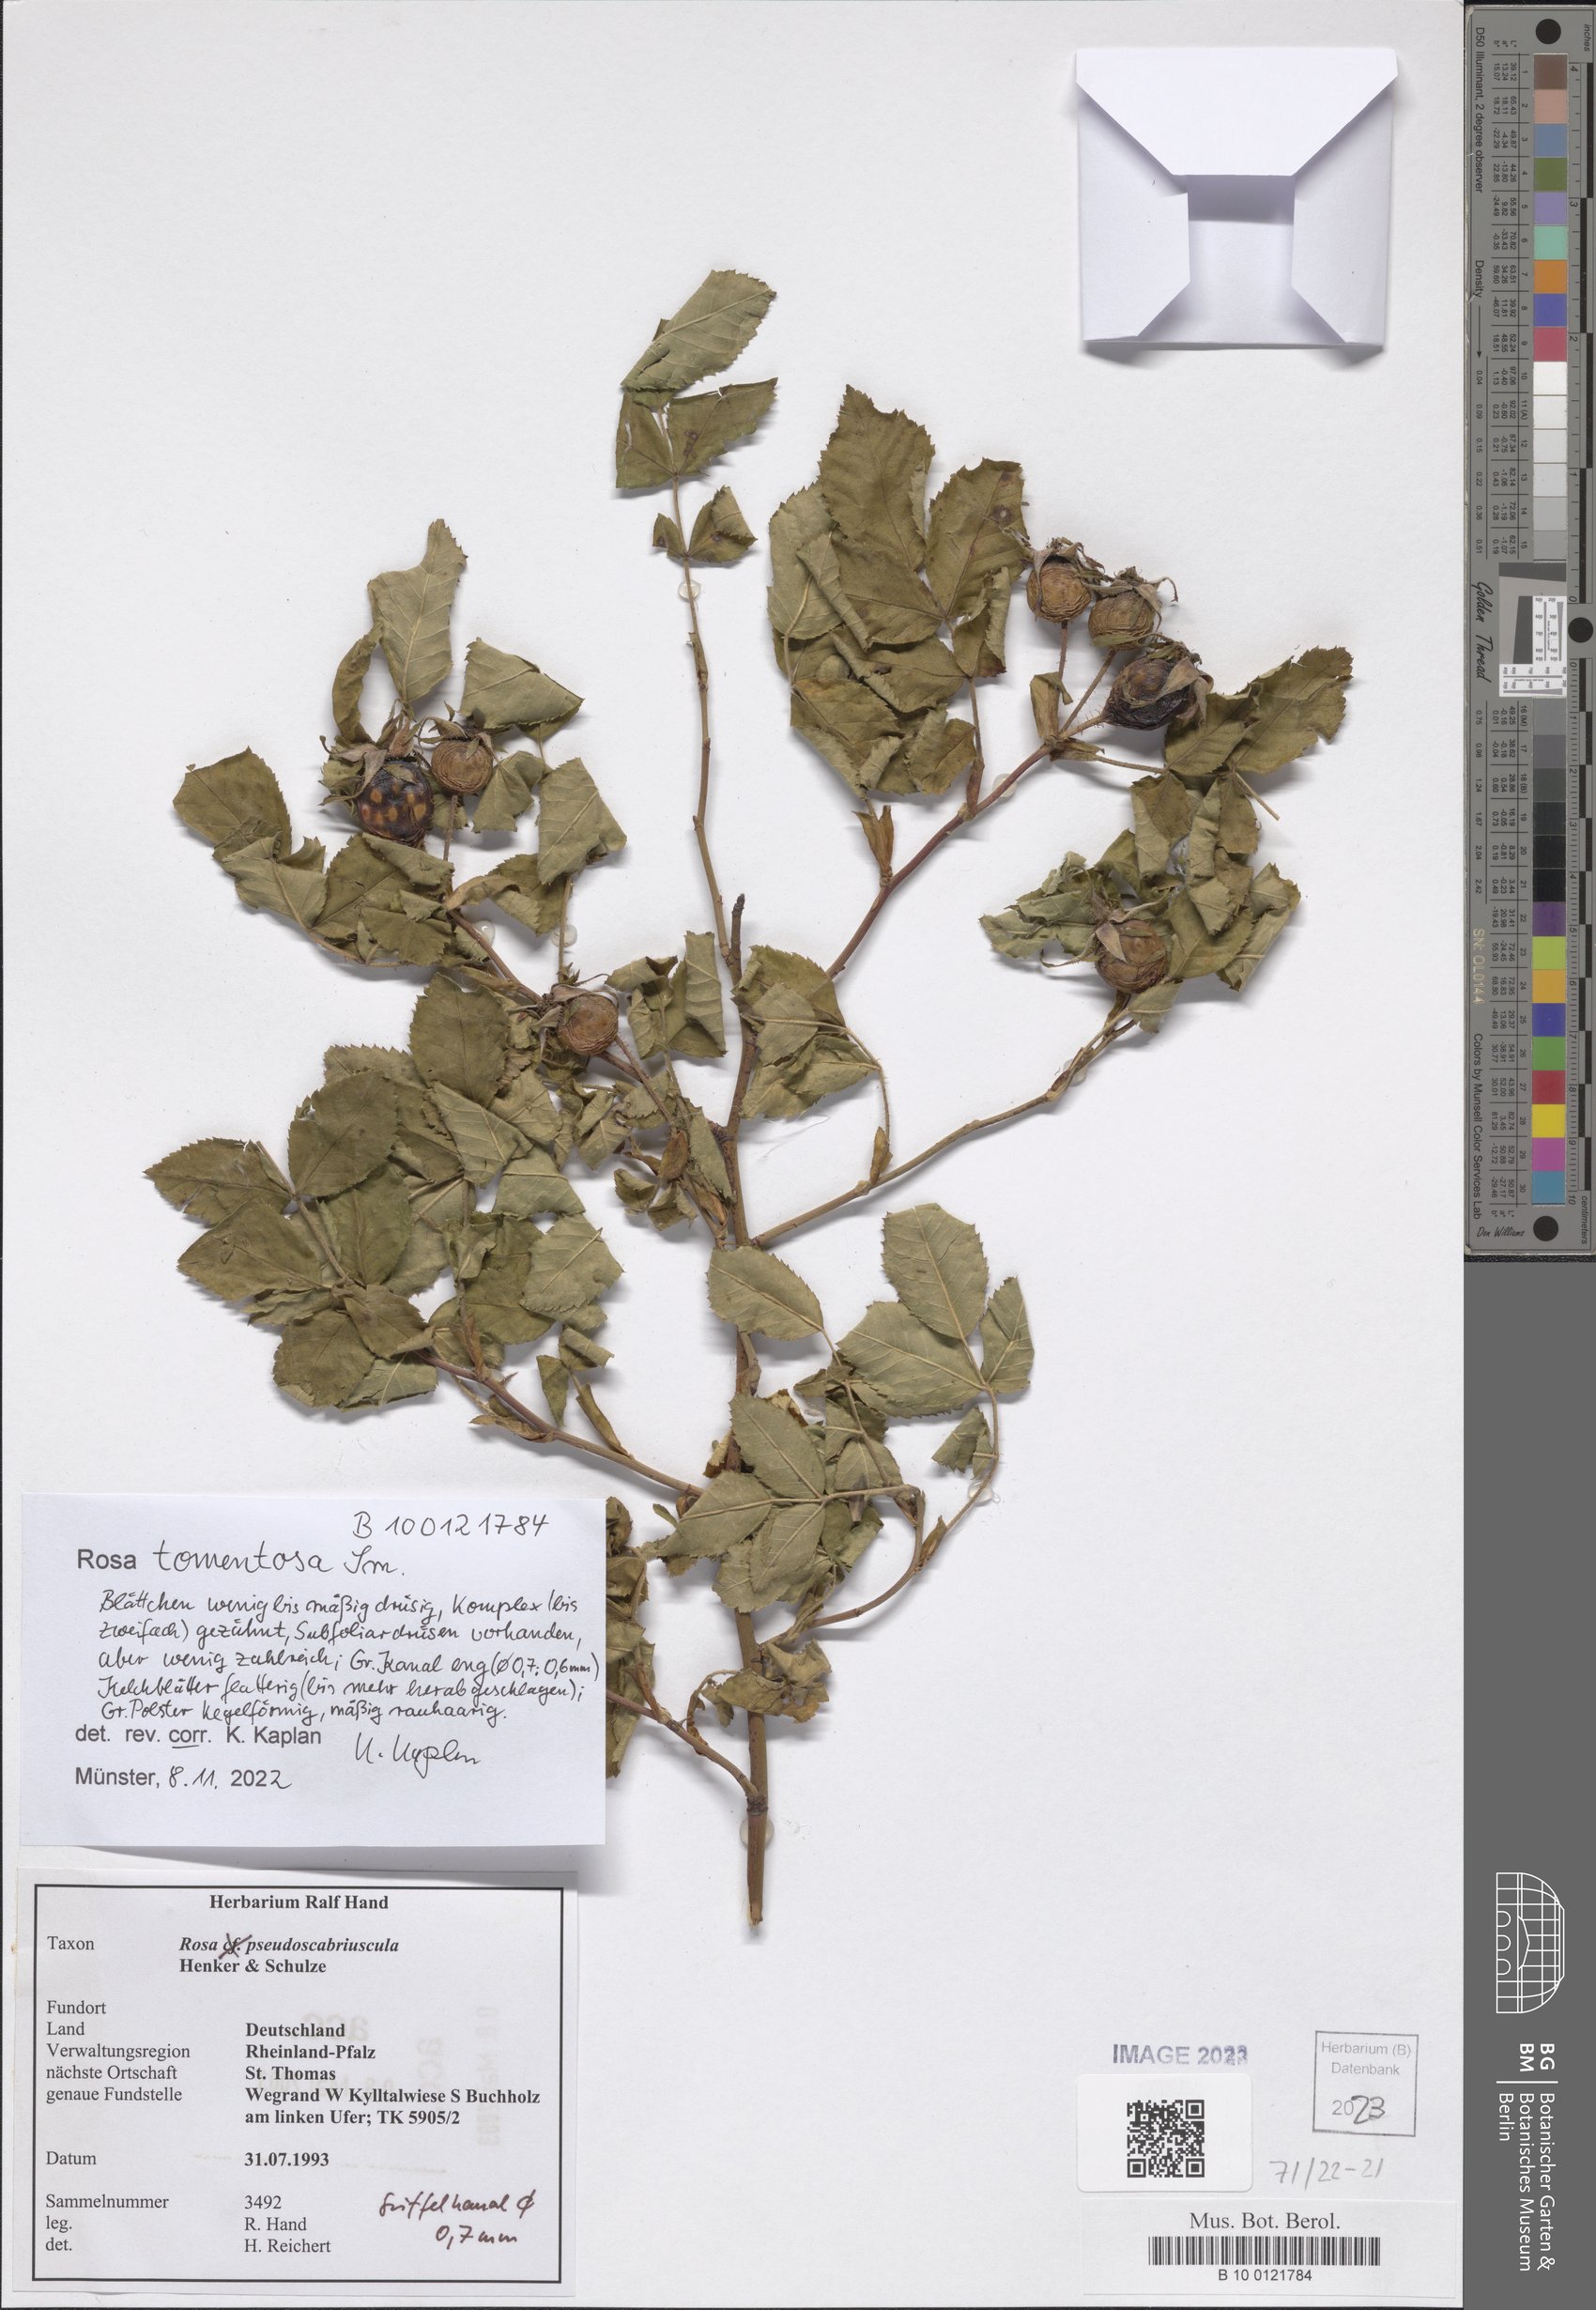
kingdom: Plantae
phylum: Tracheophyta
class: Magnoliopsida
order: Rosales
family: Rosaceae
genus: Rosa
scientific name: Rosa tomentosa
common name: Downy rose
